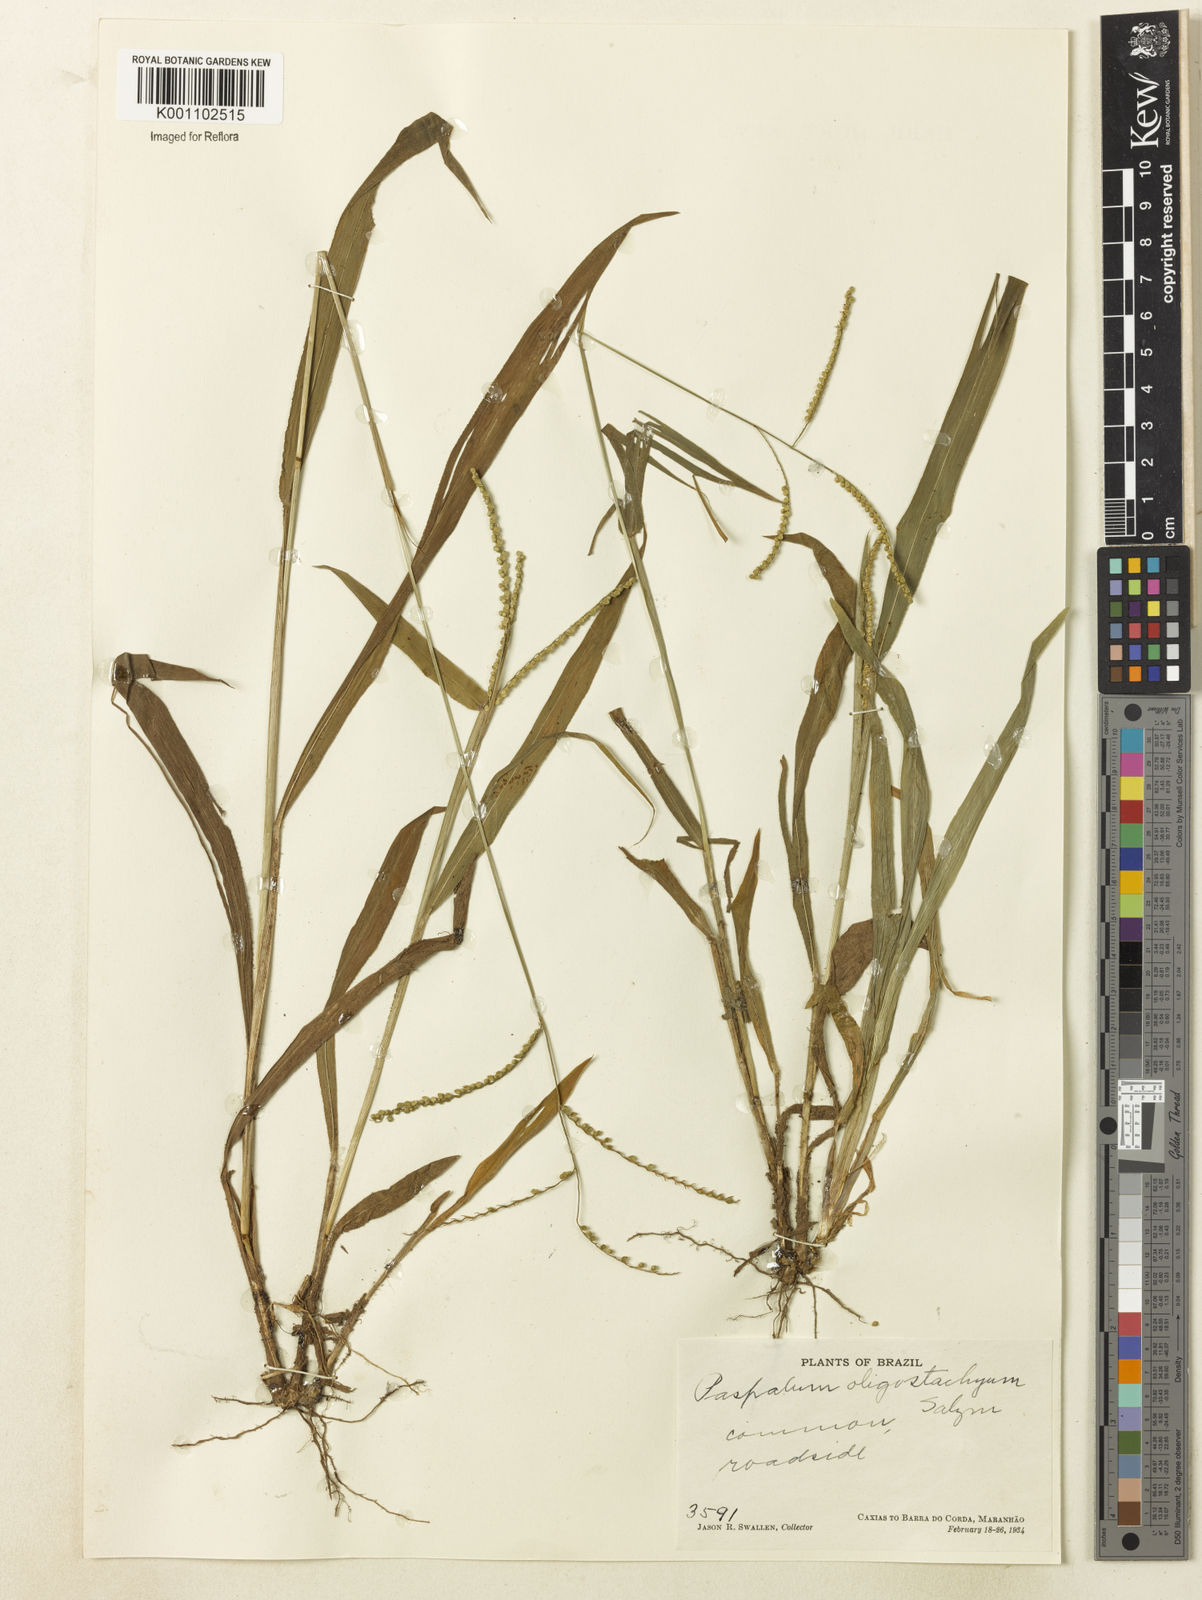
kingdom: Plantae
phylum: Tracheophyta
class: Liliopsida
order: Poales
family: Poaceae
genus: Paspalum
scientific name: Paspalum oligostachyum
